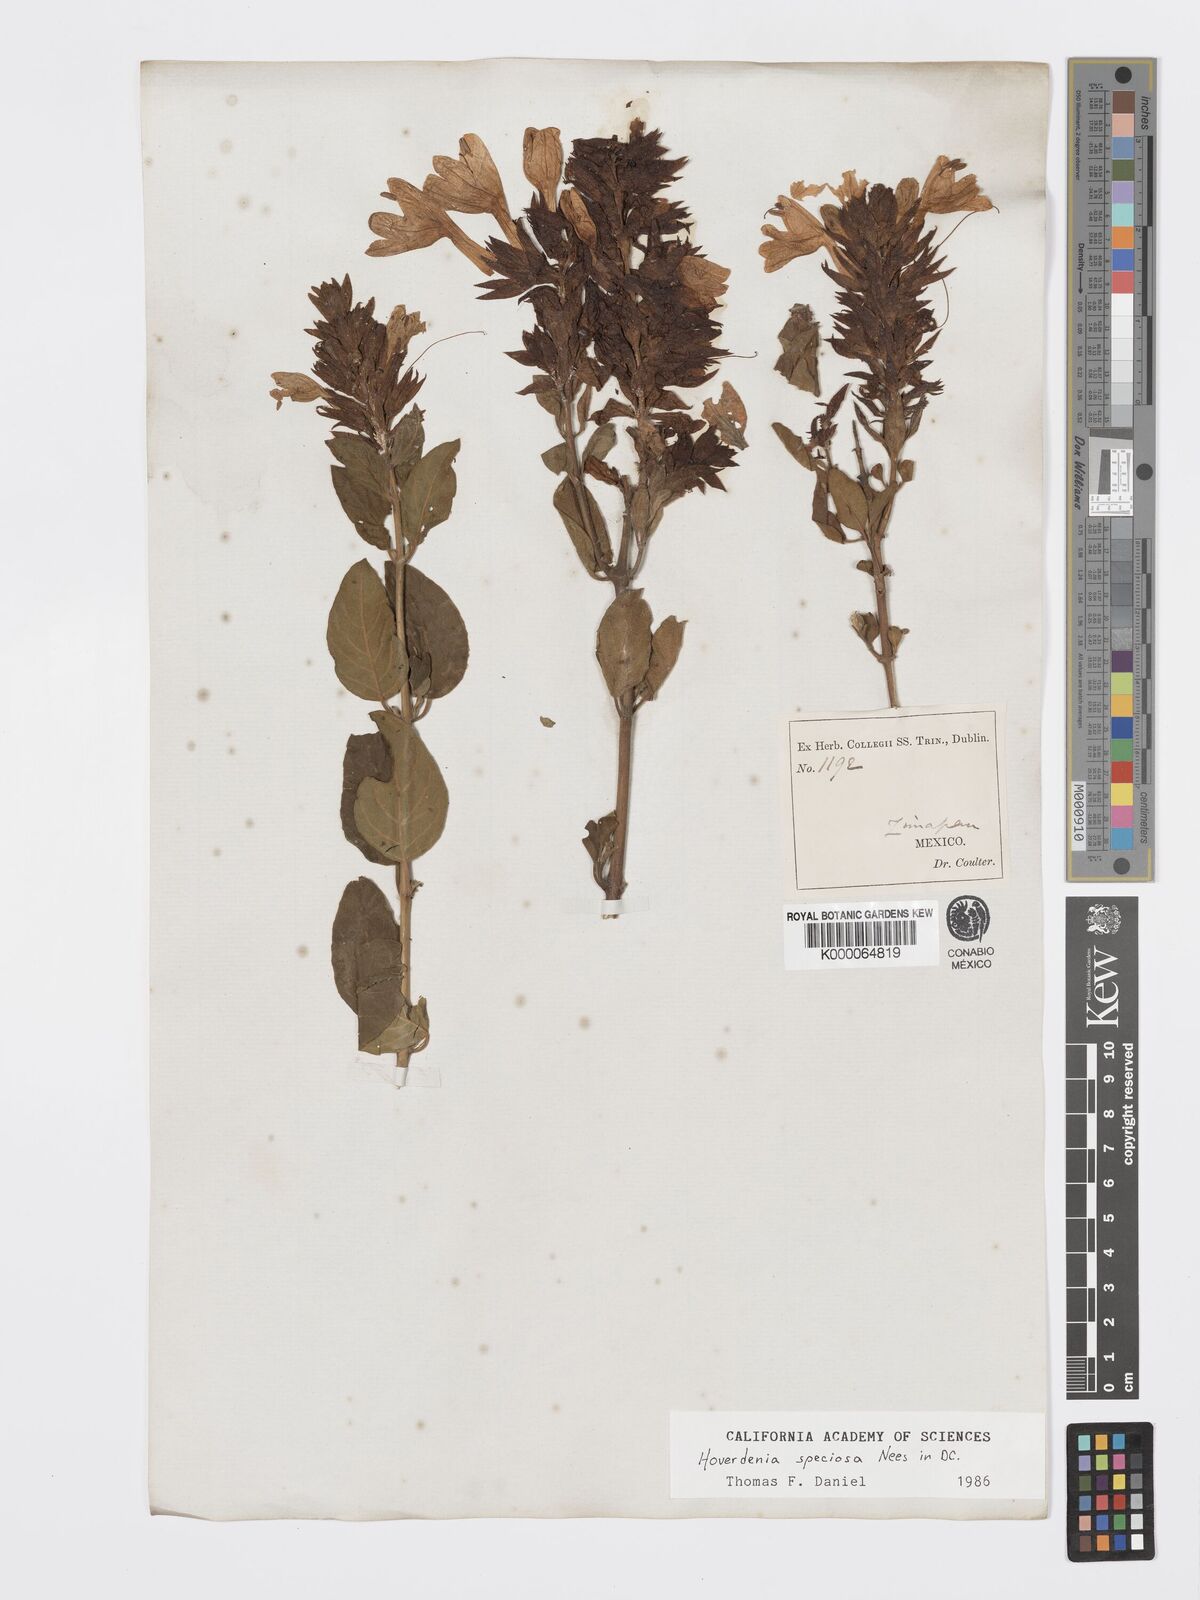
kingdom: Plantae
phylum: Tracheophyta
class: Magnoliopsida
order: Lamiales
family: Acanthaceae
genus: Hoverdenia
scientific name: Hoverdenia speciosa
